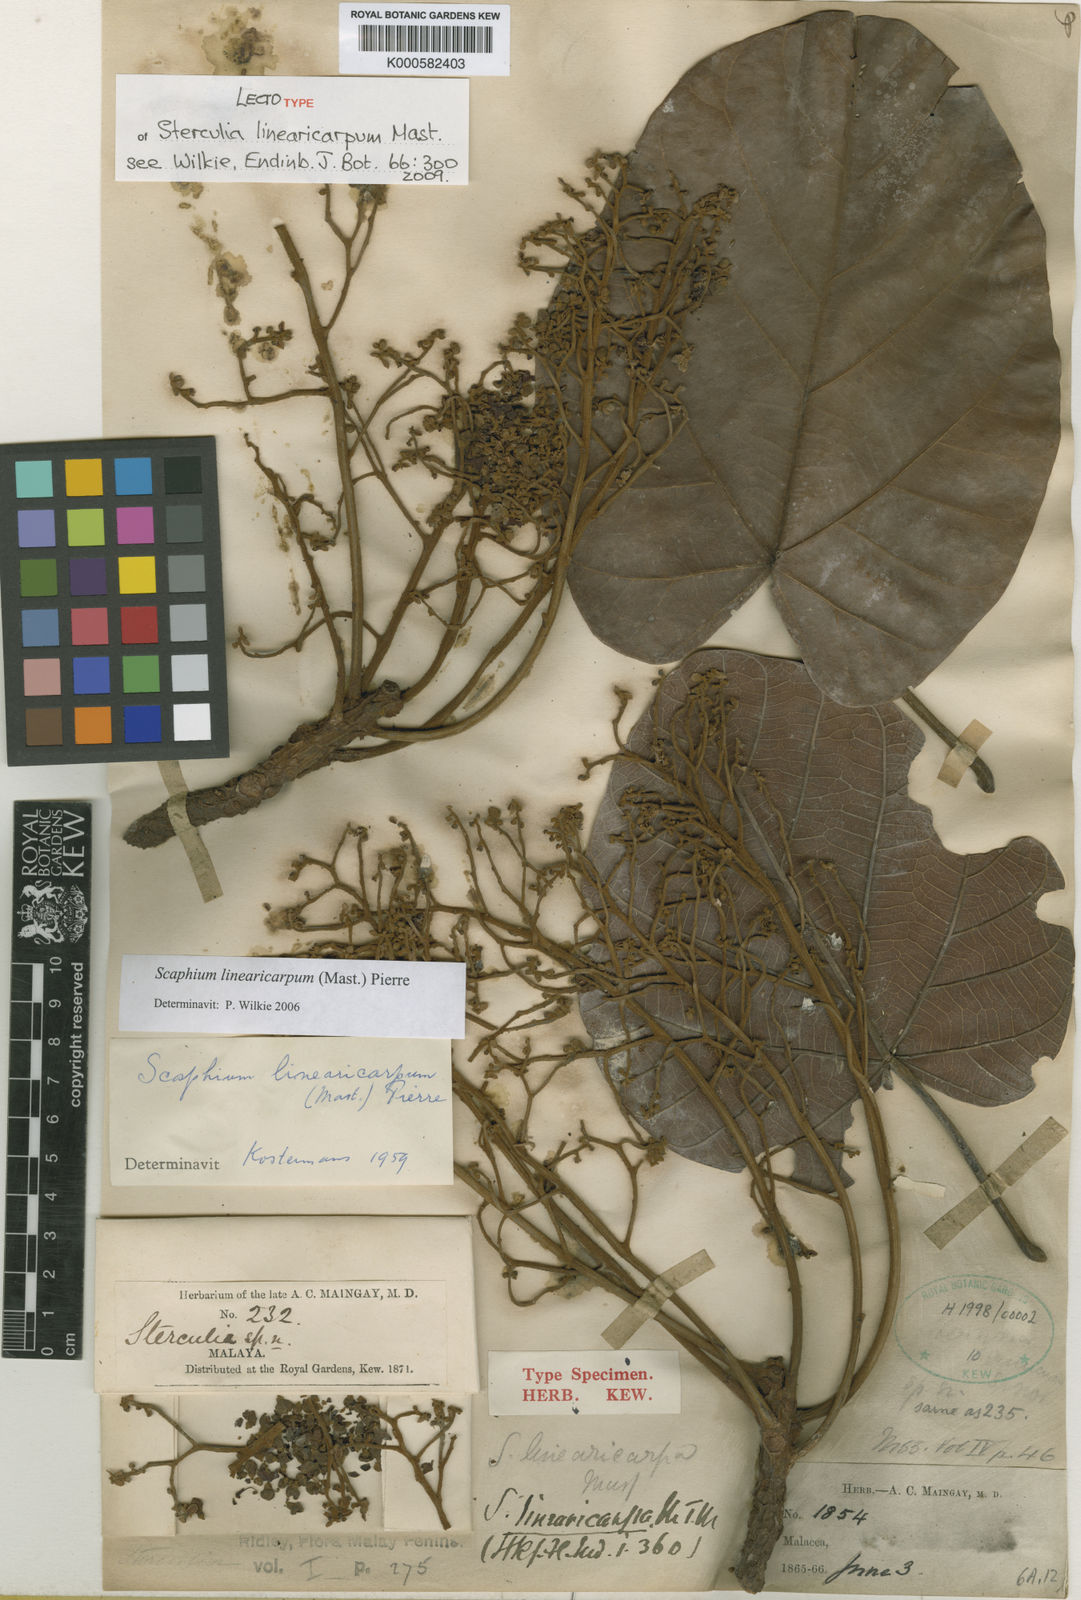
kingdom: Plantae
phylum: Tracheophyta
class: Magnoliopsida
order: Malvales
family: Malvaceae
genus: Scaphium
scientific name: Scaphium linearicarpum
